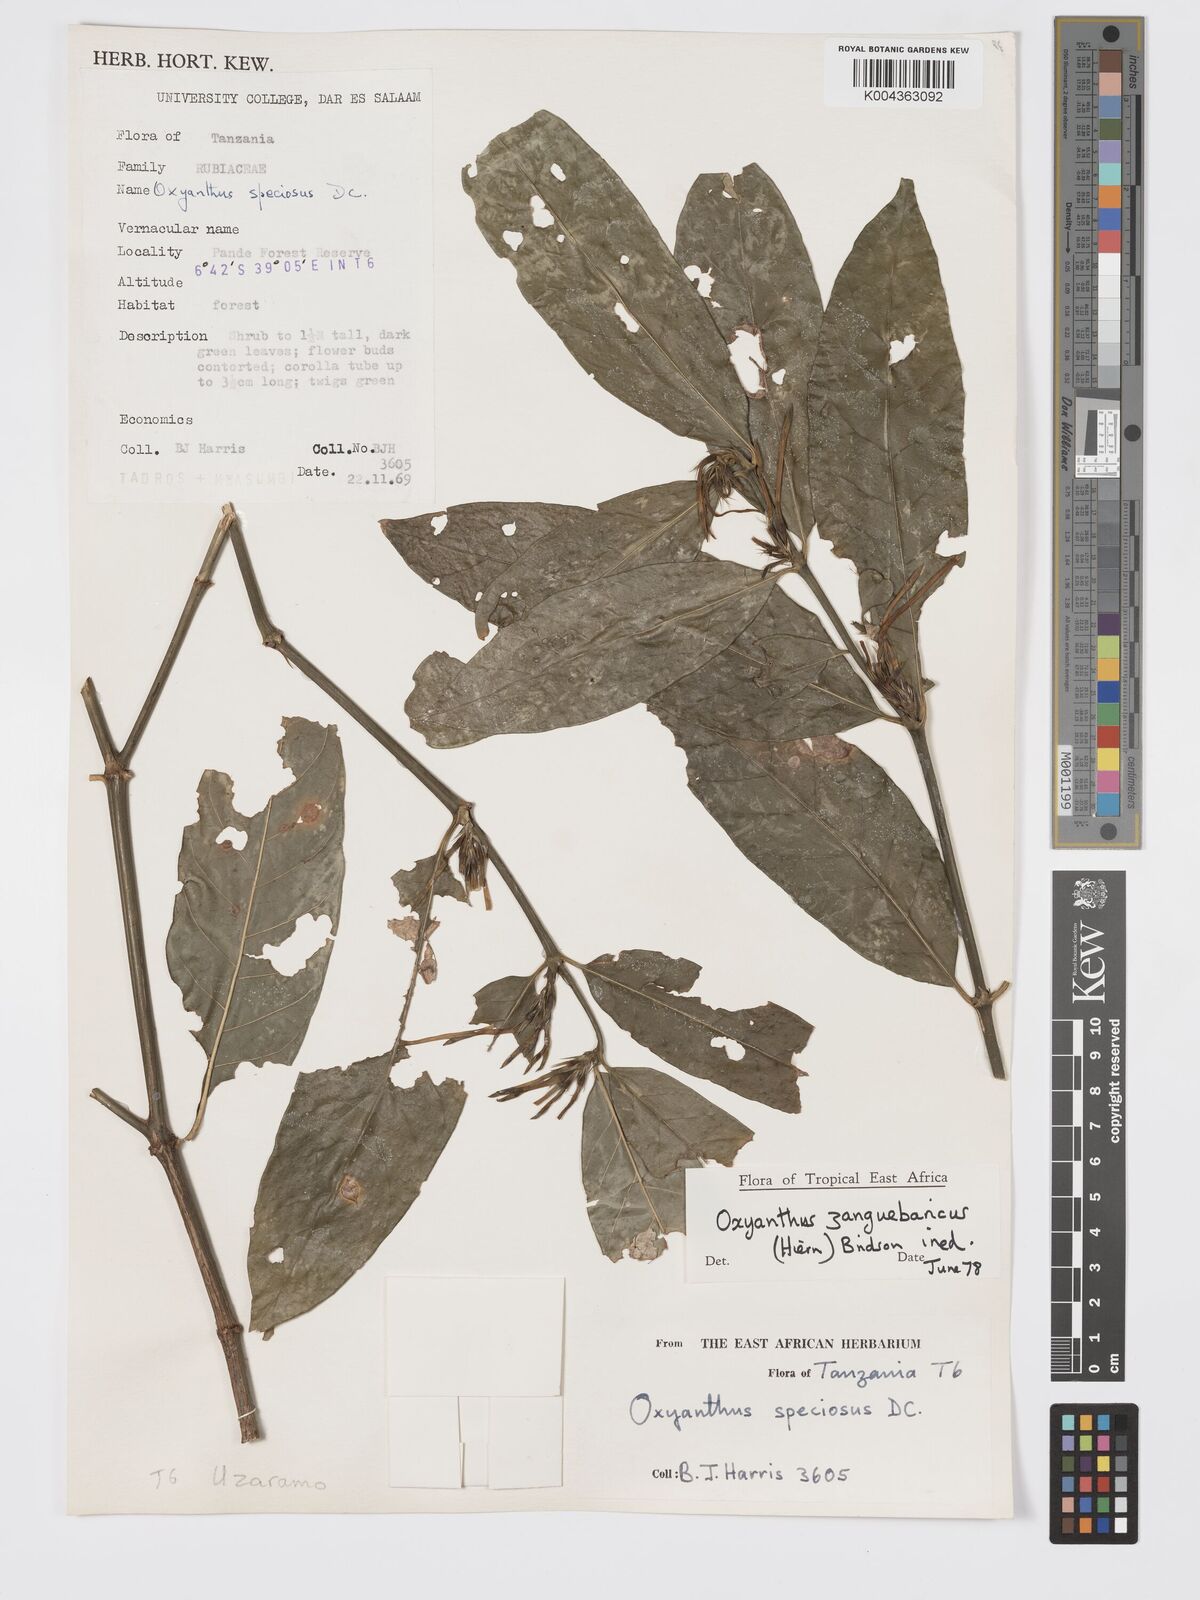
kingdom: Plantae
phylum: Tracheophyta
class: Magnoliopsida
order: Gentianales
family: Rubiaceae
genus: Oxyanthus
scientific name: Oxyanthus zanguebaricus
